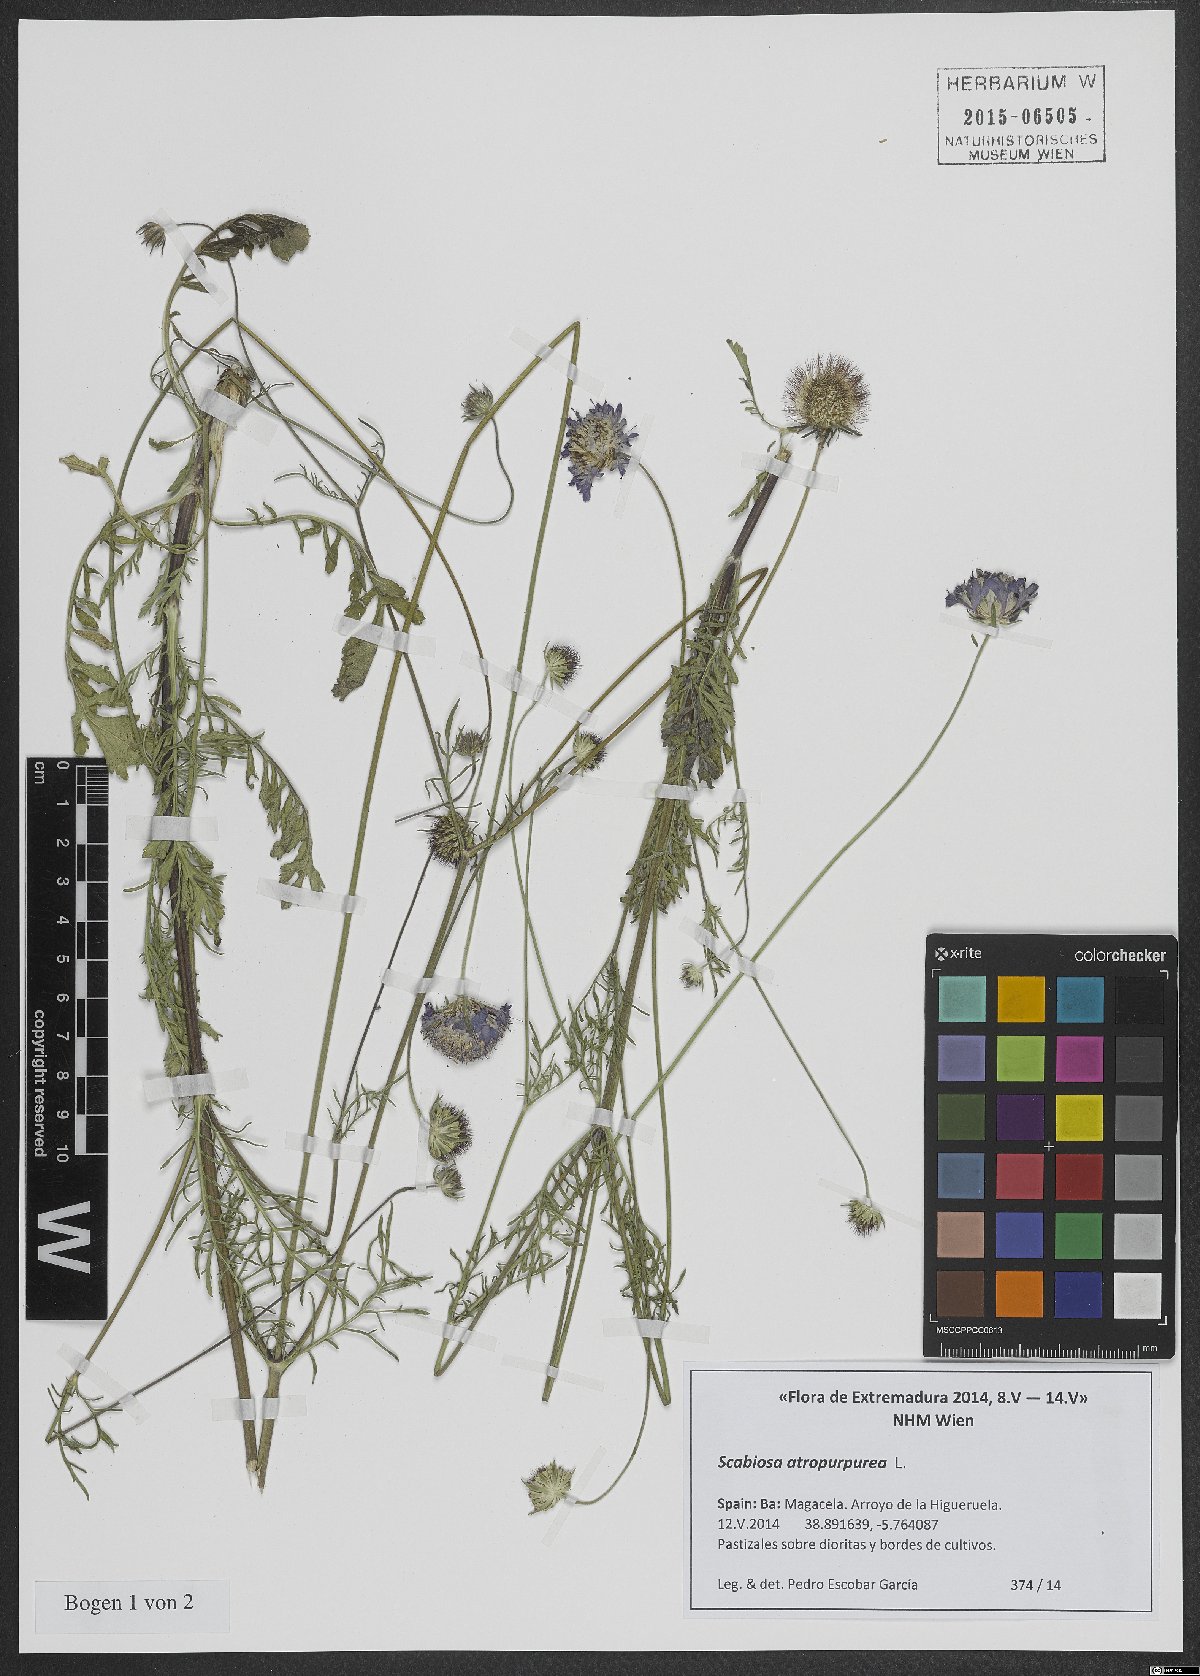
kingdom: Plantae
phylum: Tracheophyta
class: Magnoliopsida
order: Dipsacales
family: Caprifoliaceae
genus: Sixalix
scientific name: Sixalix atropurpurea
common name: Sweet scabious
